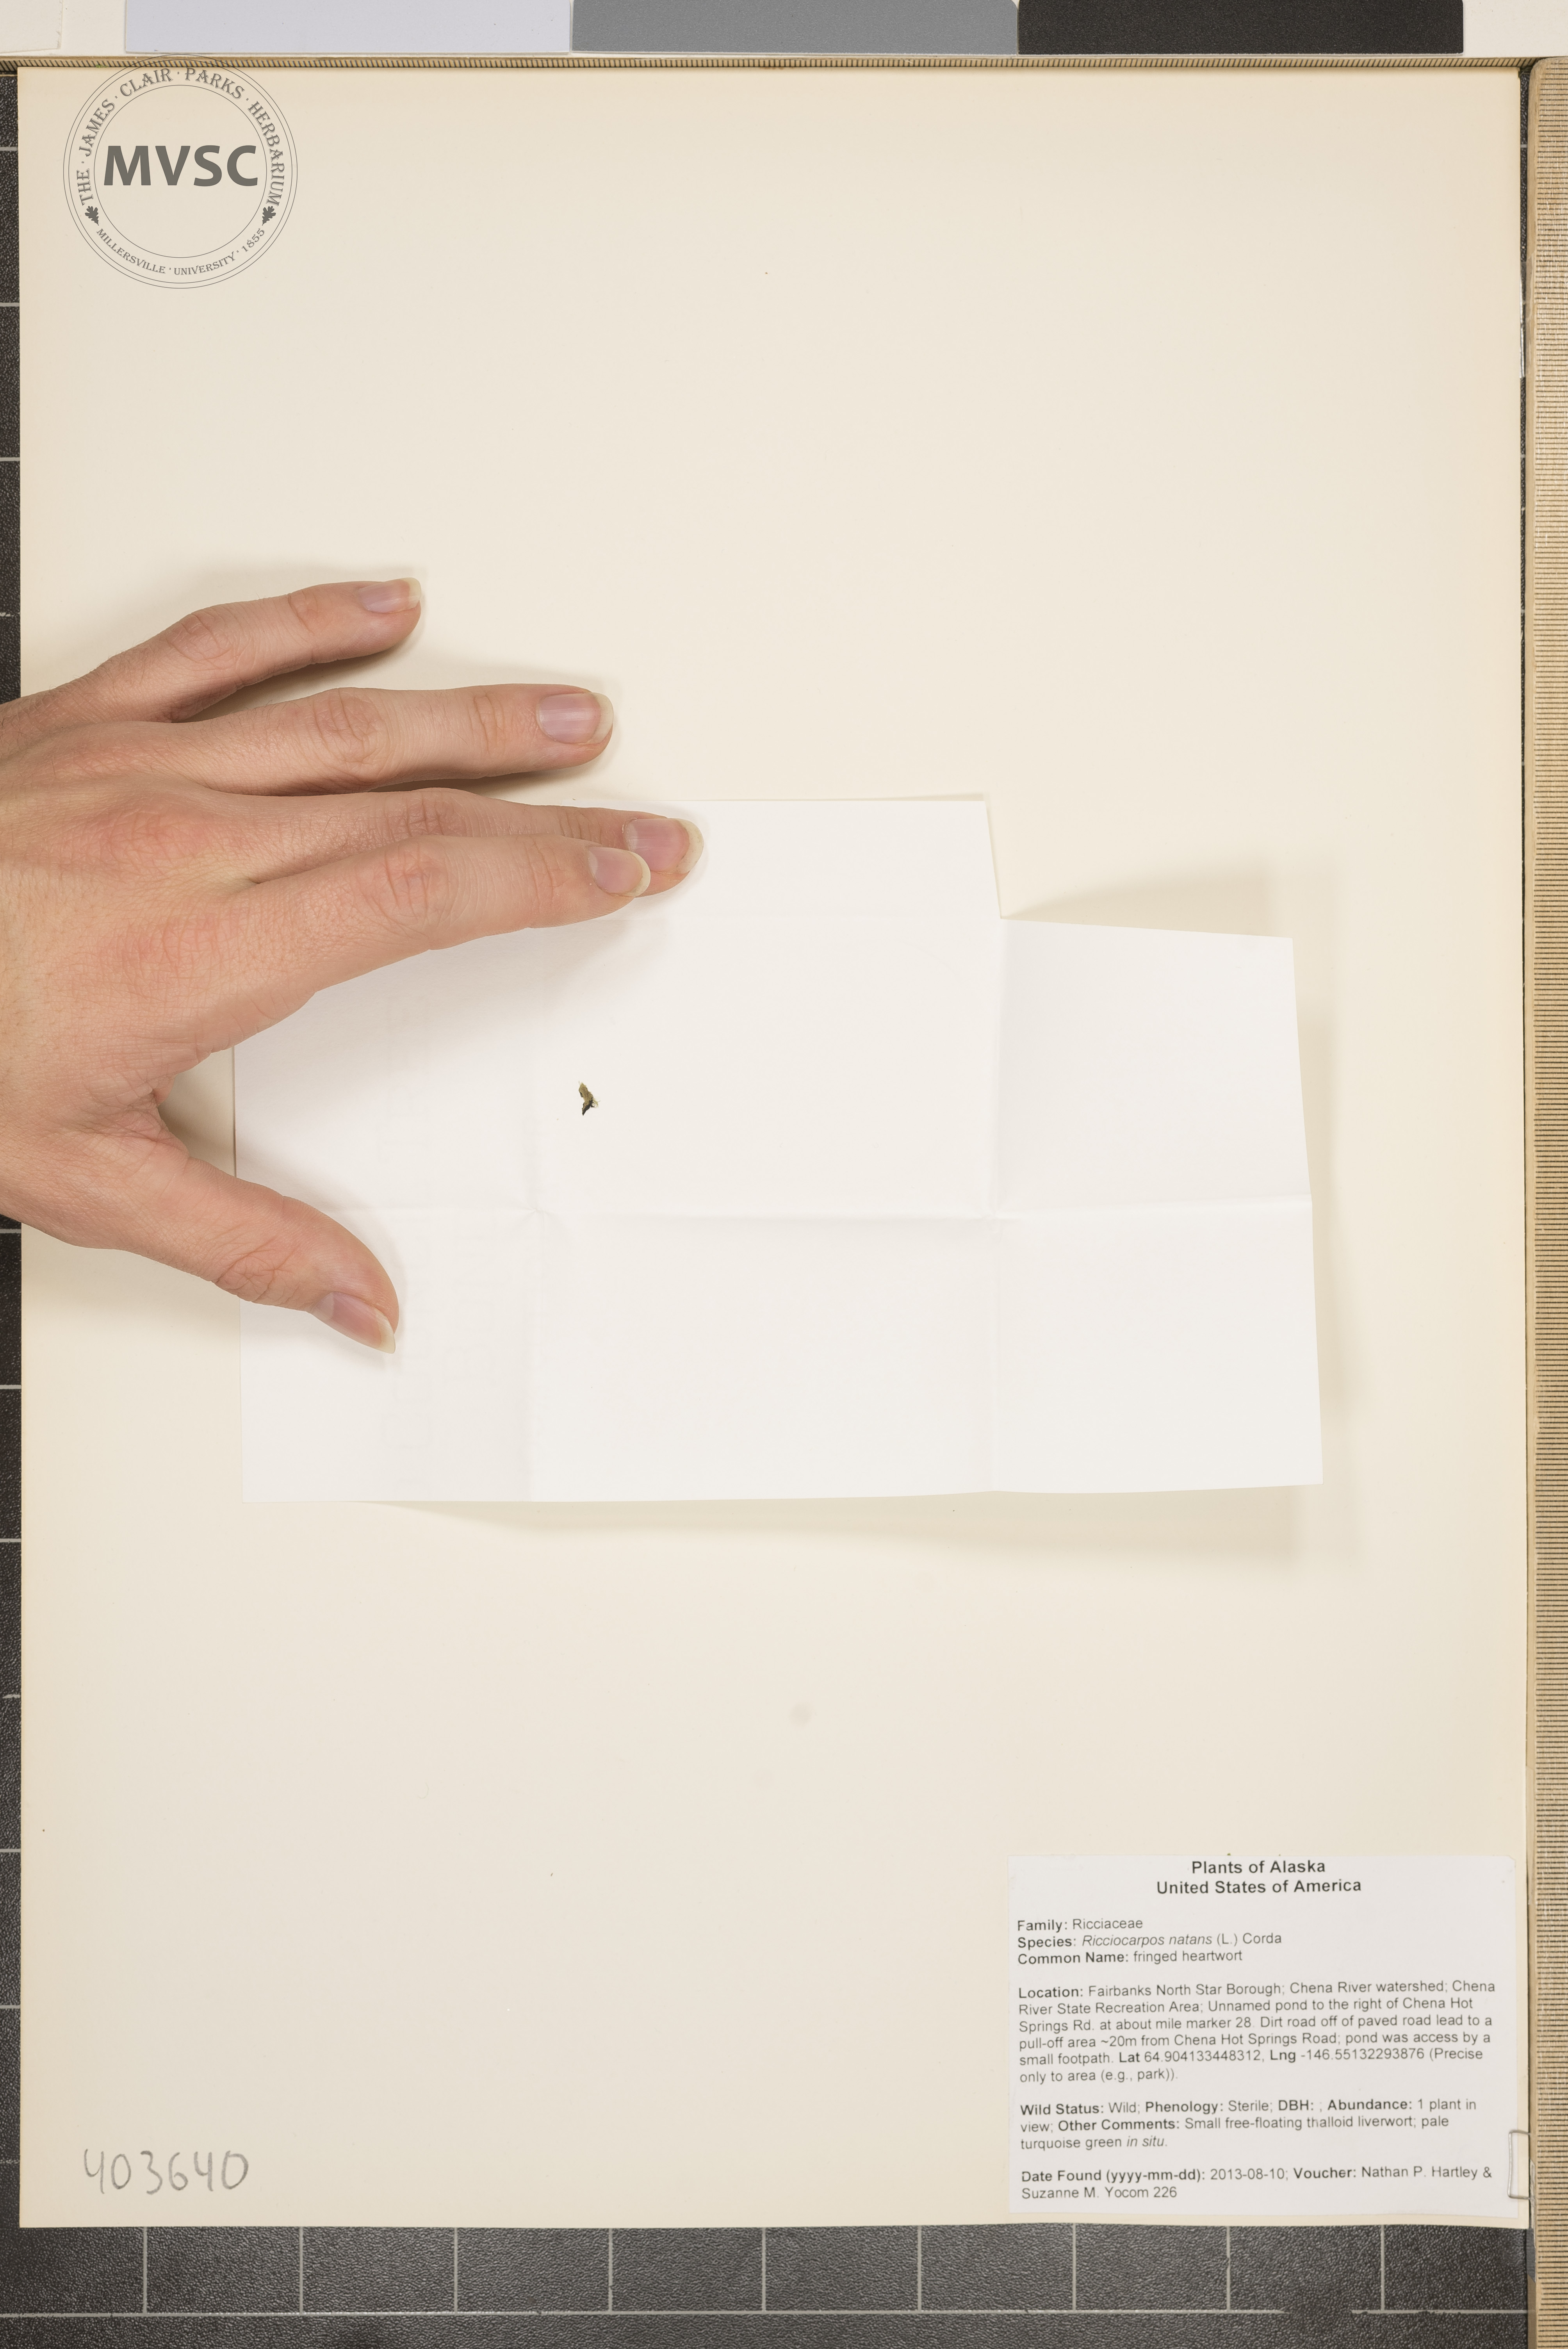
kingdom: Plantae
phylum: Marchantiophyta
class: Marchantiopsida
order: Marchantiales
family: Ricciaceae
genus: Ricciocarpos
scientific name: Ricciocarpos natans
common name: fringed heartwort
